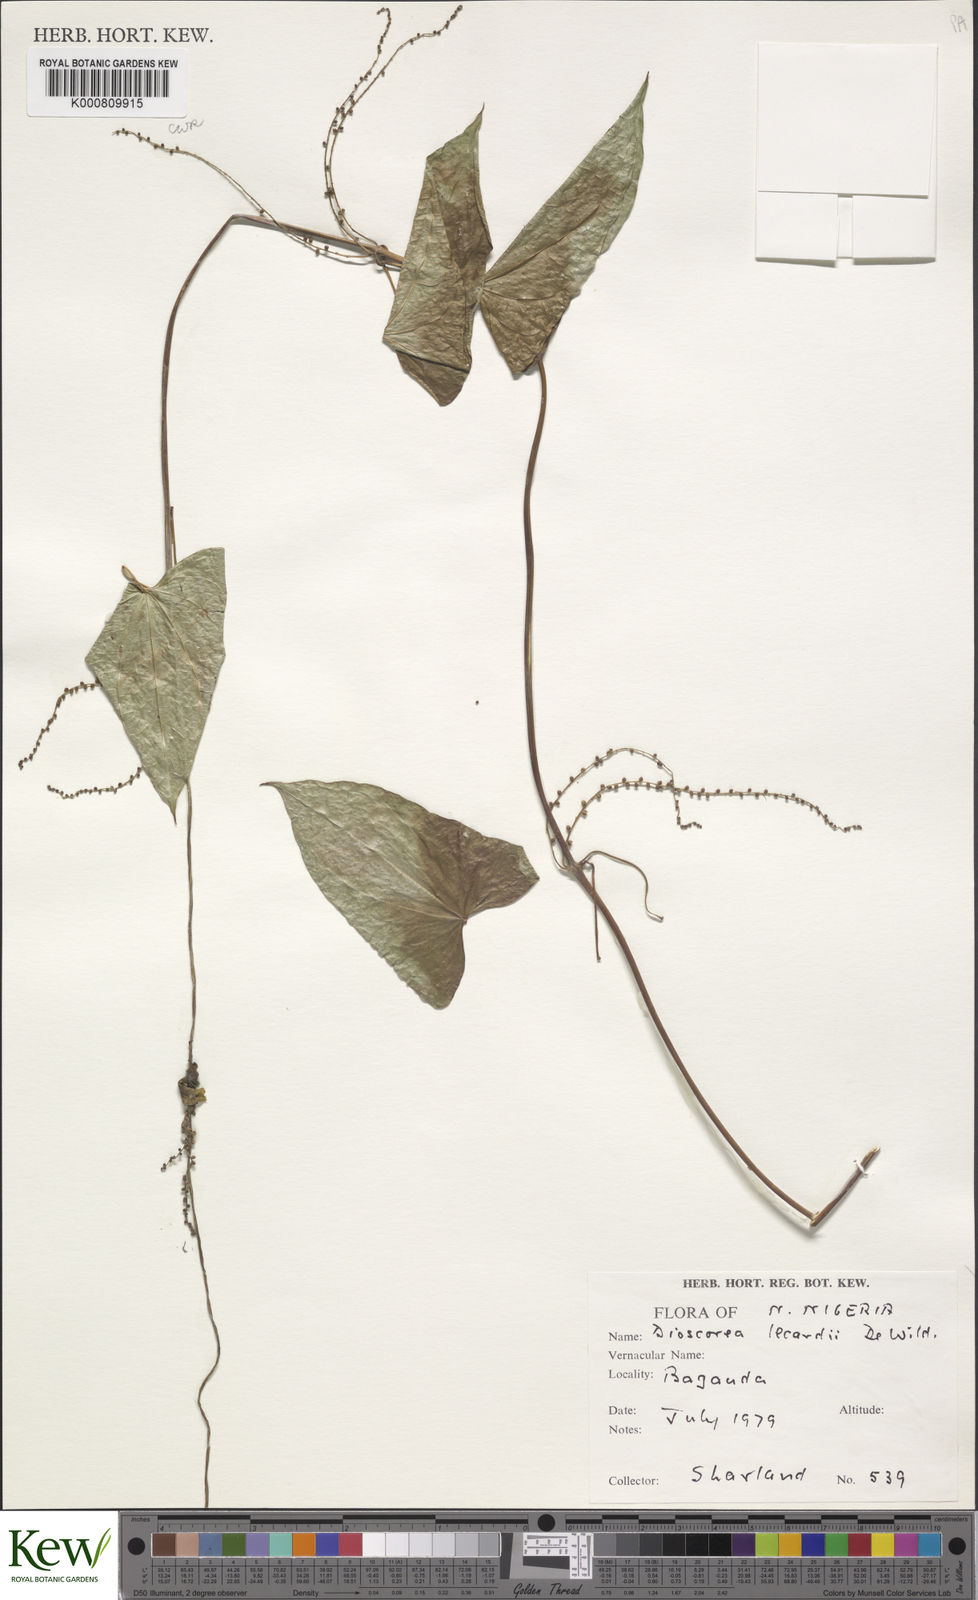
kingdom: Plantae
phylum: Tracheophyta
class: Liliopsida
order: Dioscoreales
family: Dioscoreaceae
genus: Dioscorea
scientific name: Dioscorea sagittifolia
